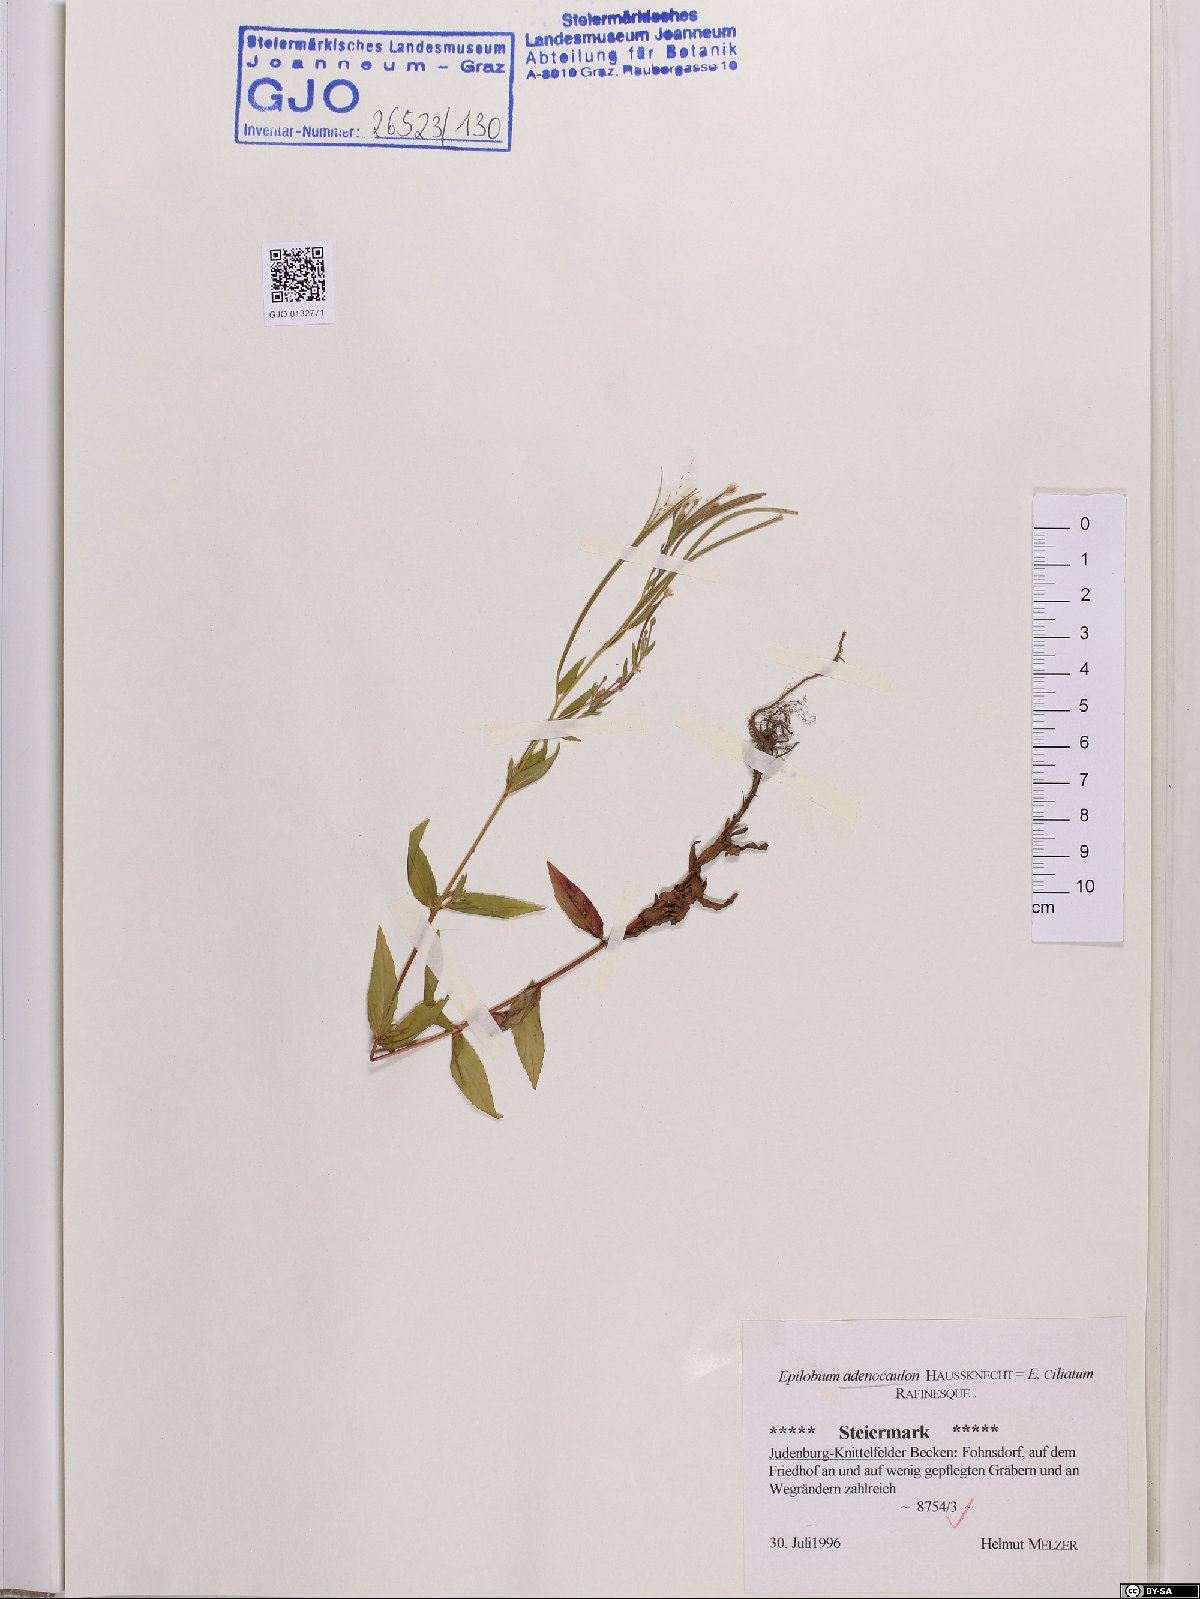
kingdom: Plantae
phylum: Tracheophyta
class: Magnoliopsida
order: Myrtales
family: Onagraceae
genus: Epilobium
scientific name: Epilobium ciliatum
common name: American willowherb
